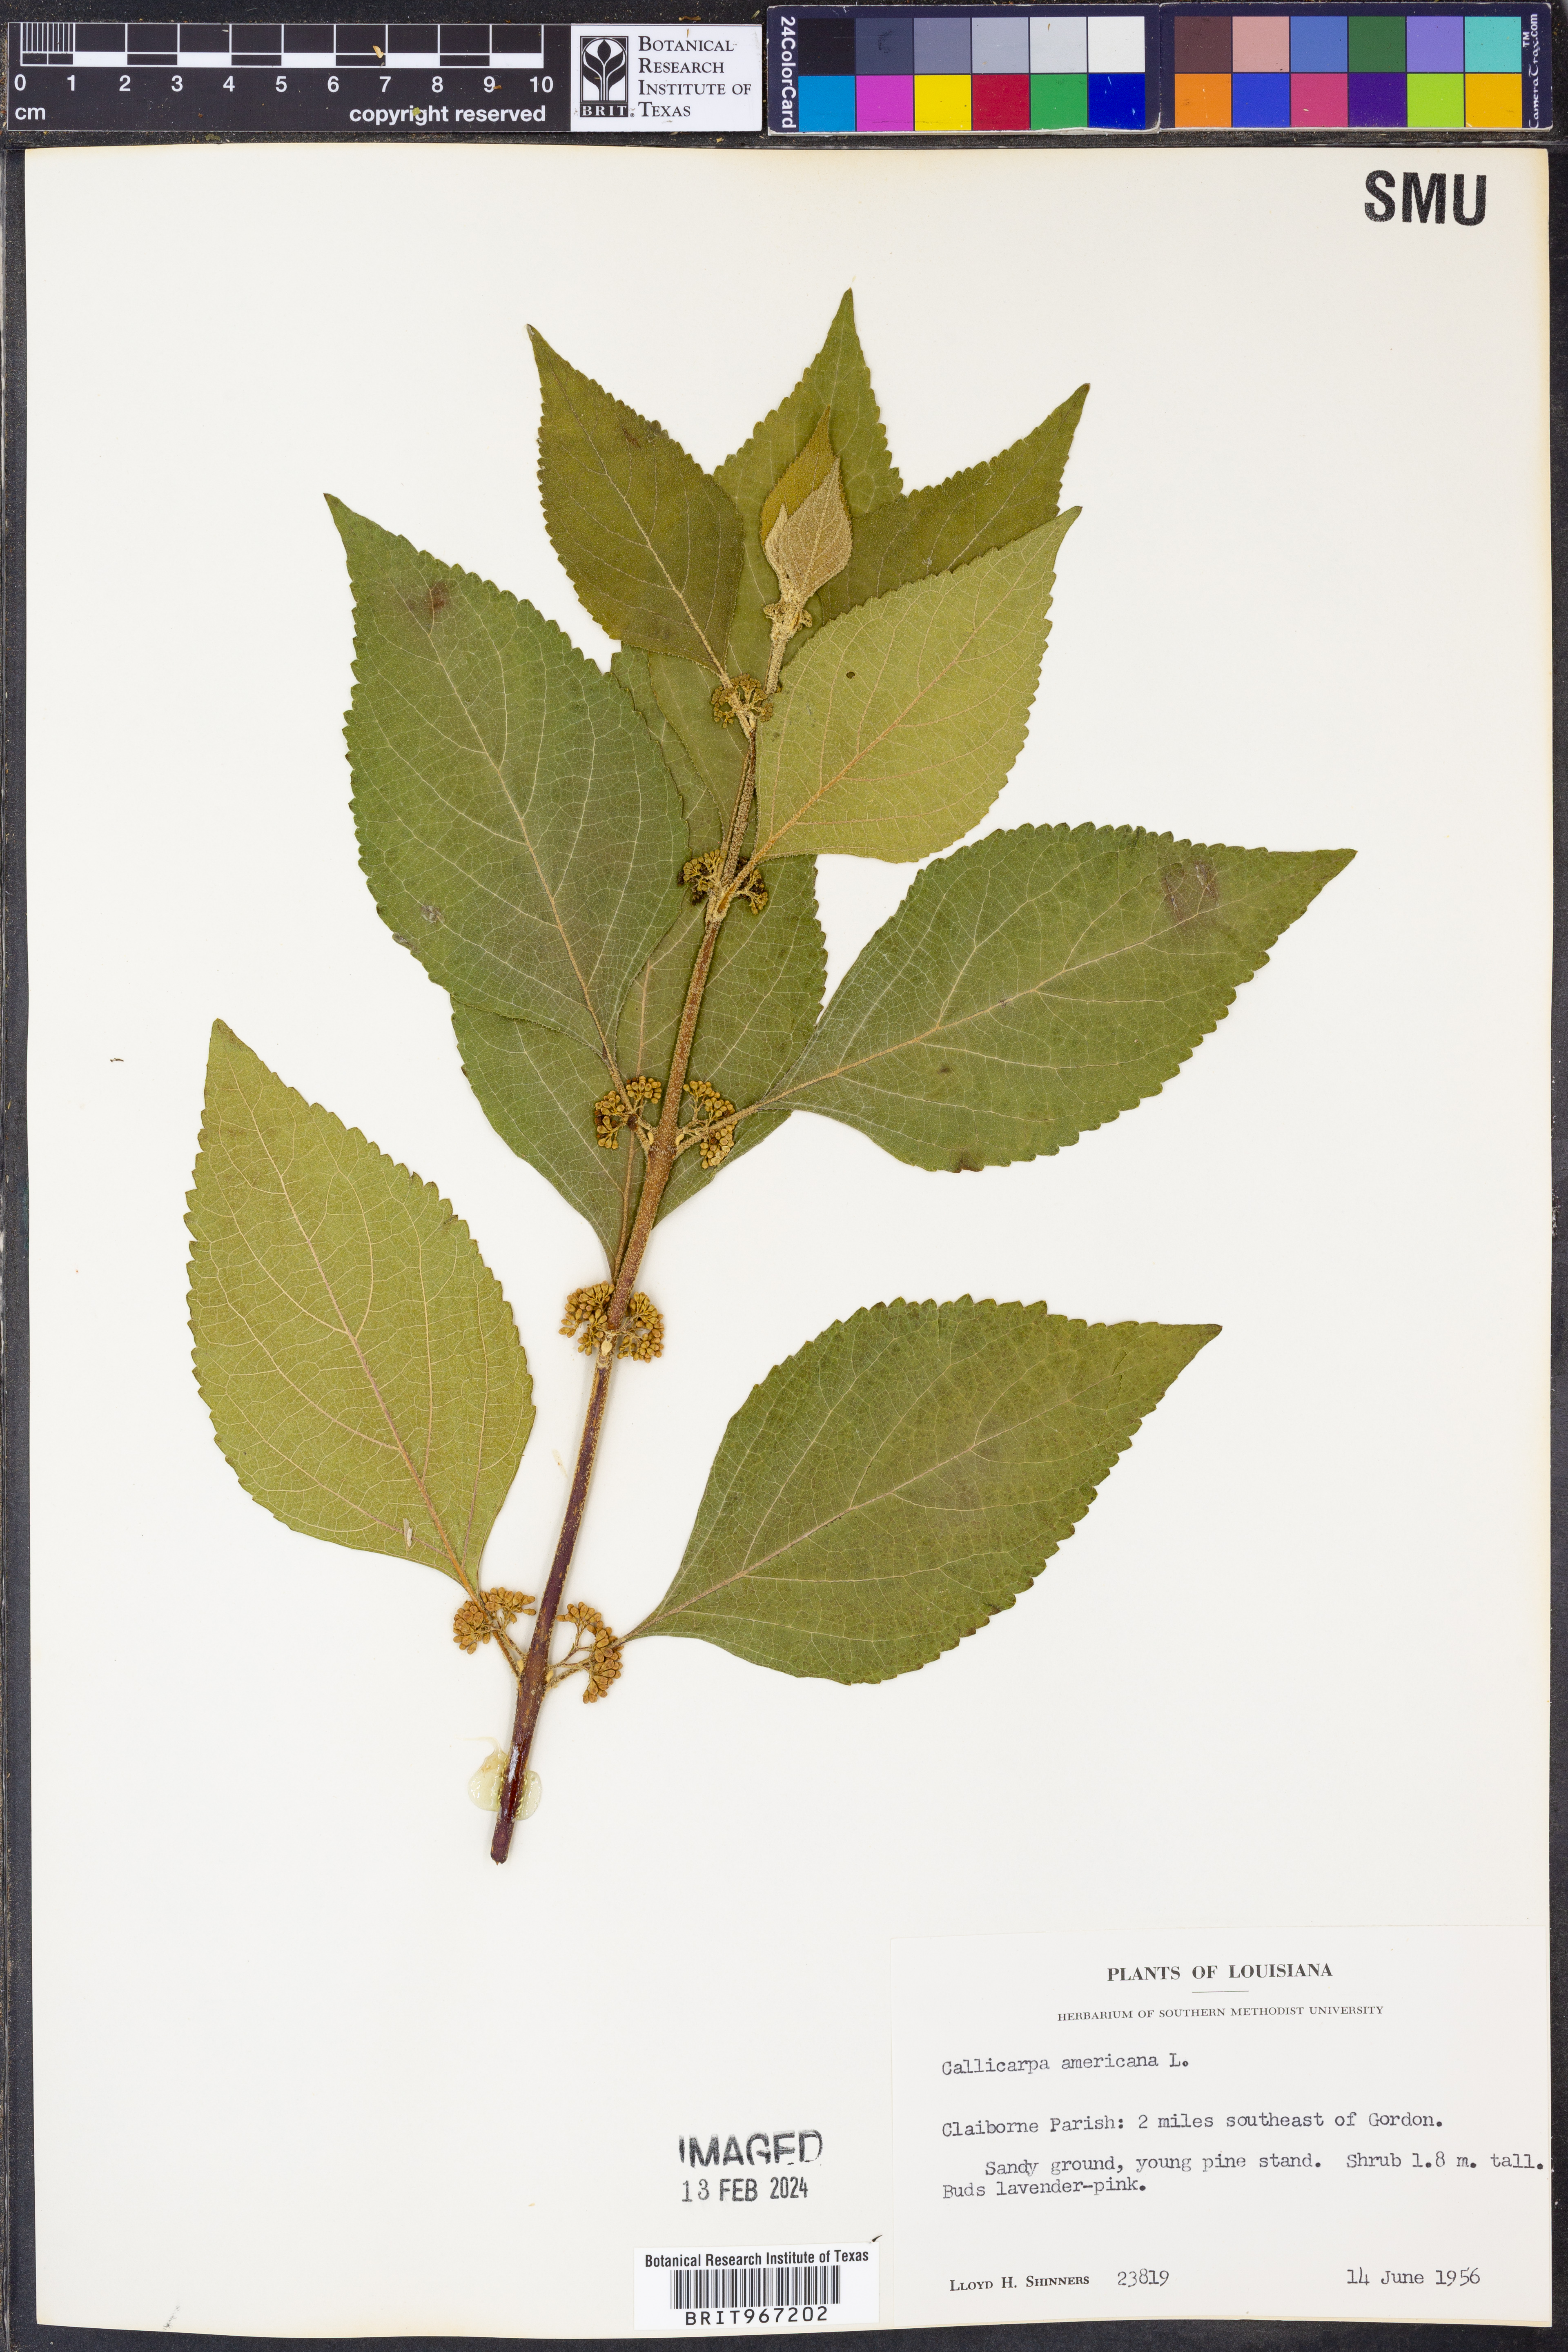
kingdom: Plantae
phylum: Tracheophyta
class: Magnoliopsida
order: Lamiales
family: Lamiaceae
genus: Callicarpa
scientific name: Callicarpa americana
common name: American beautyberry
